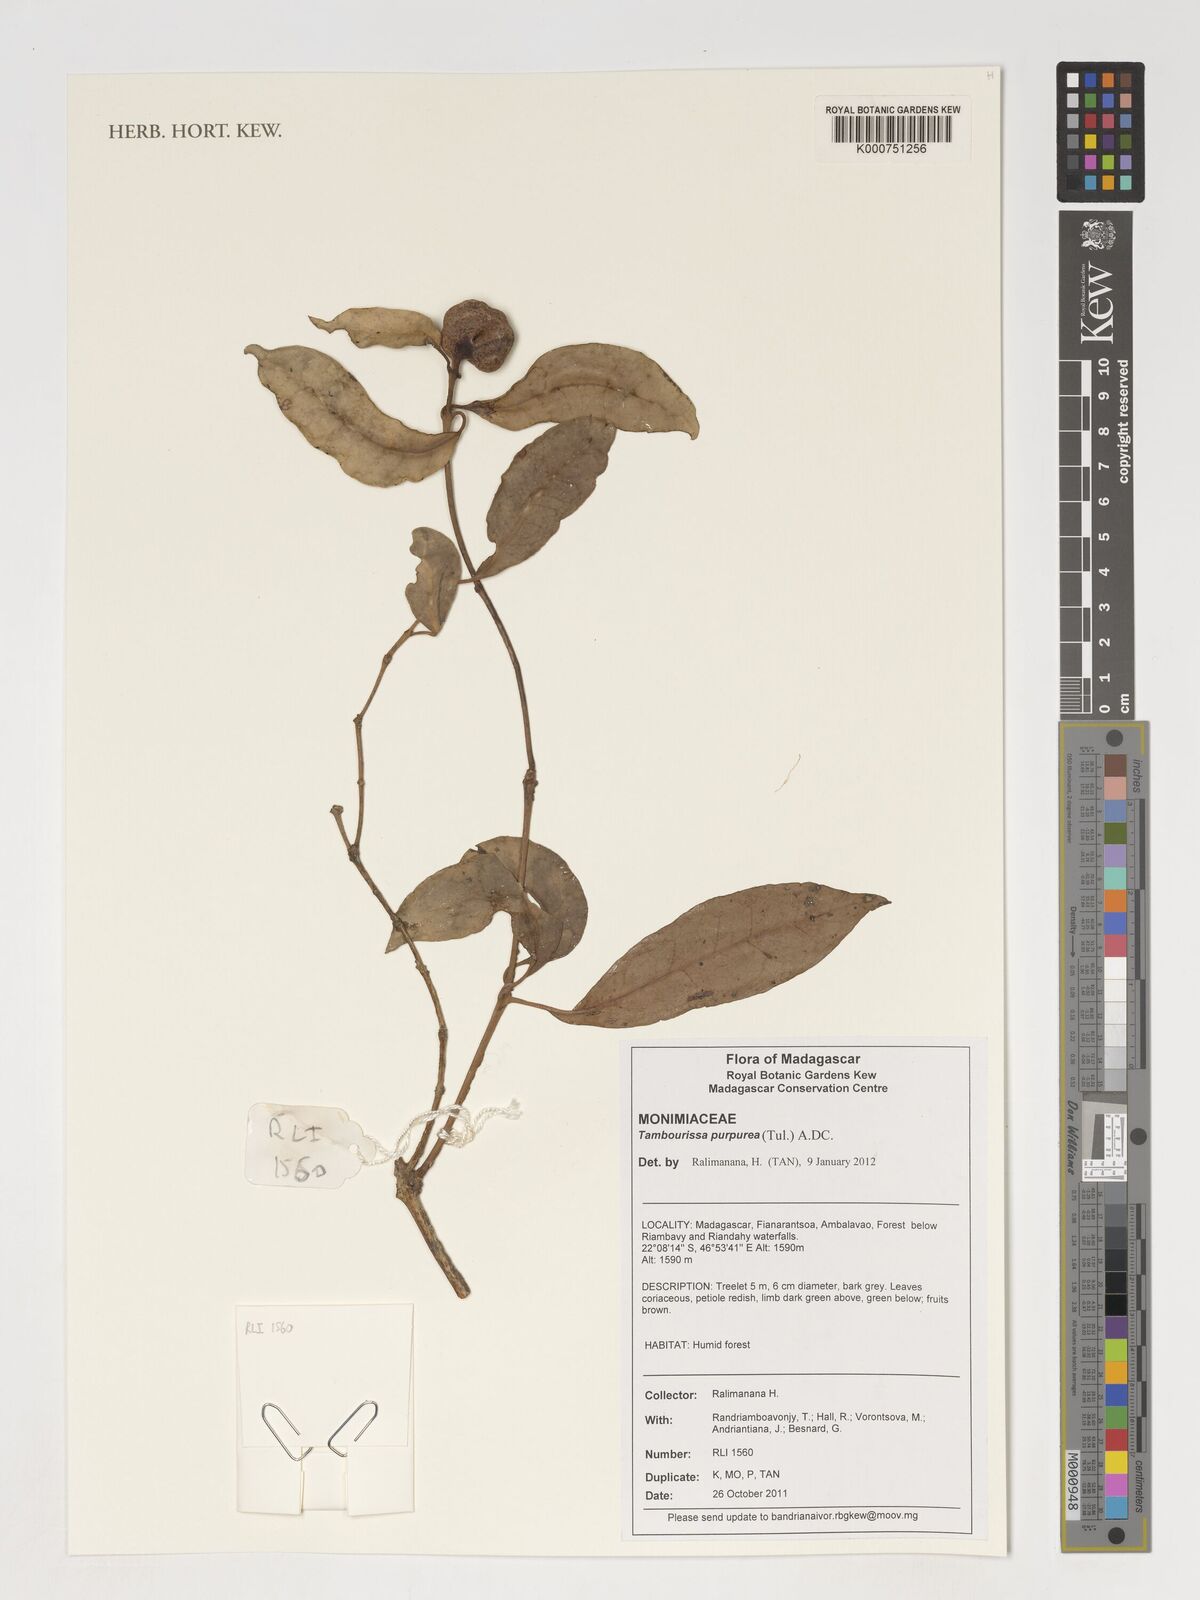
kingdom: Plantae
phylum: Tracheophyta
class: Magnoliopsida
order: Laurales
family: Monimiaceae
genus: Tambourissa
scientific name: Tambourissa purpurea
